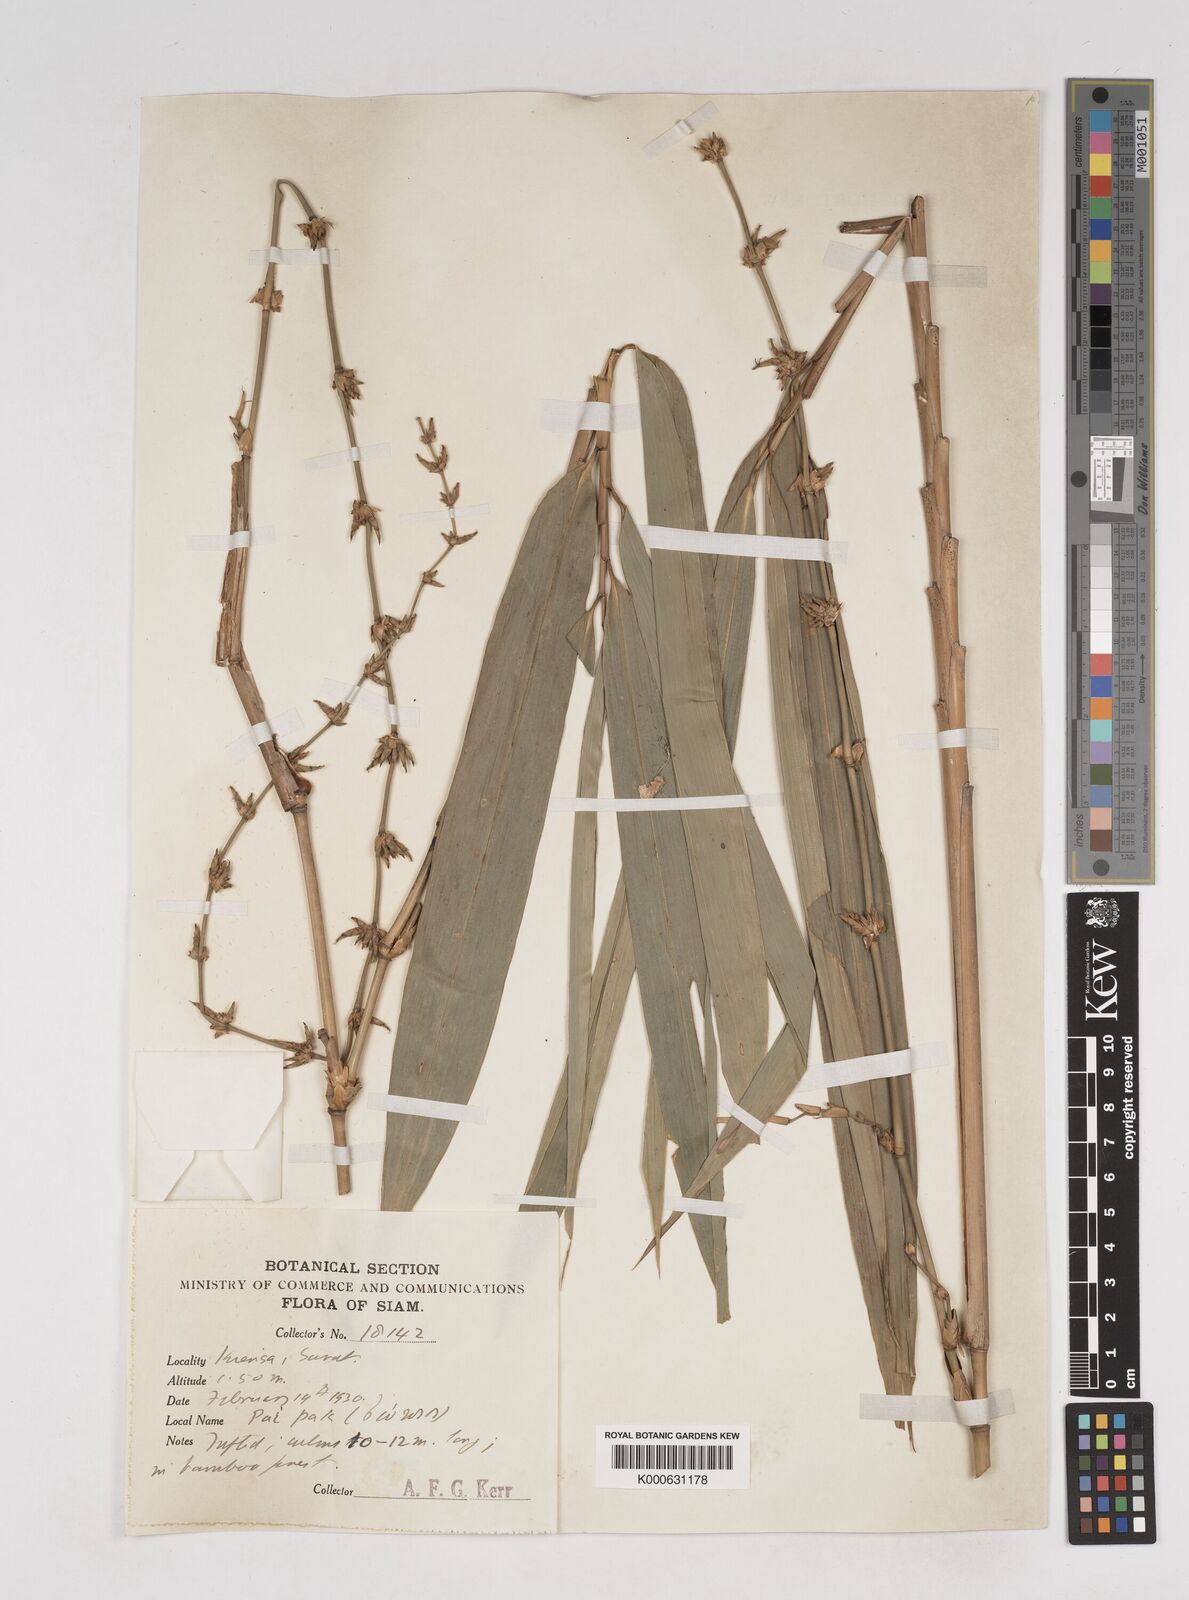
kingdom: Plantae
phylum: Tracheophyta
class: Liliopsida
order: Poales
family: Poaceae
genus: Gigantochloa
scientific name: Gigantochloa
